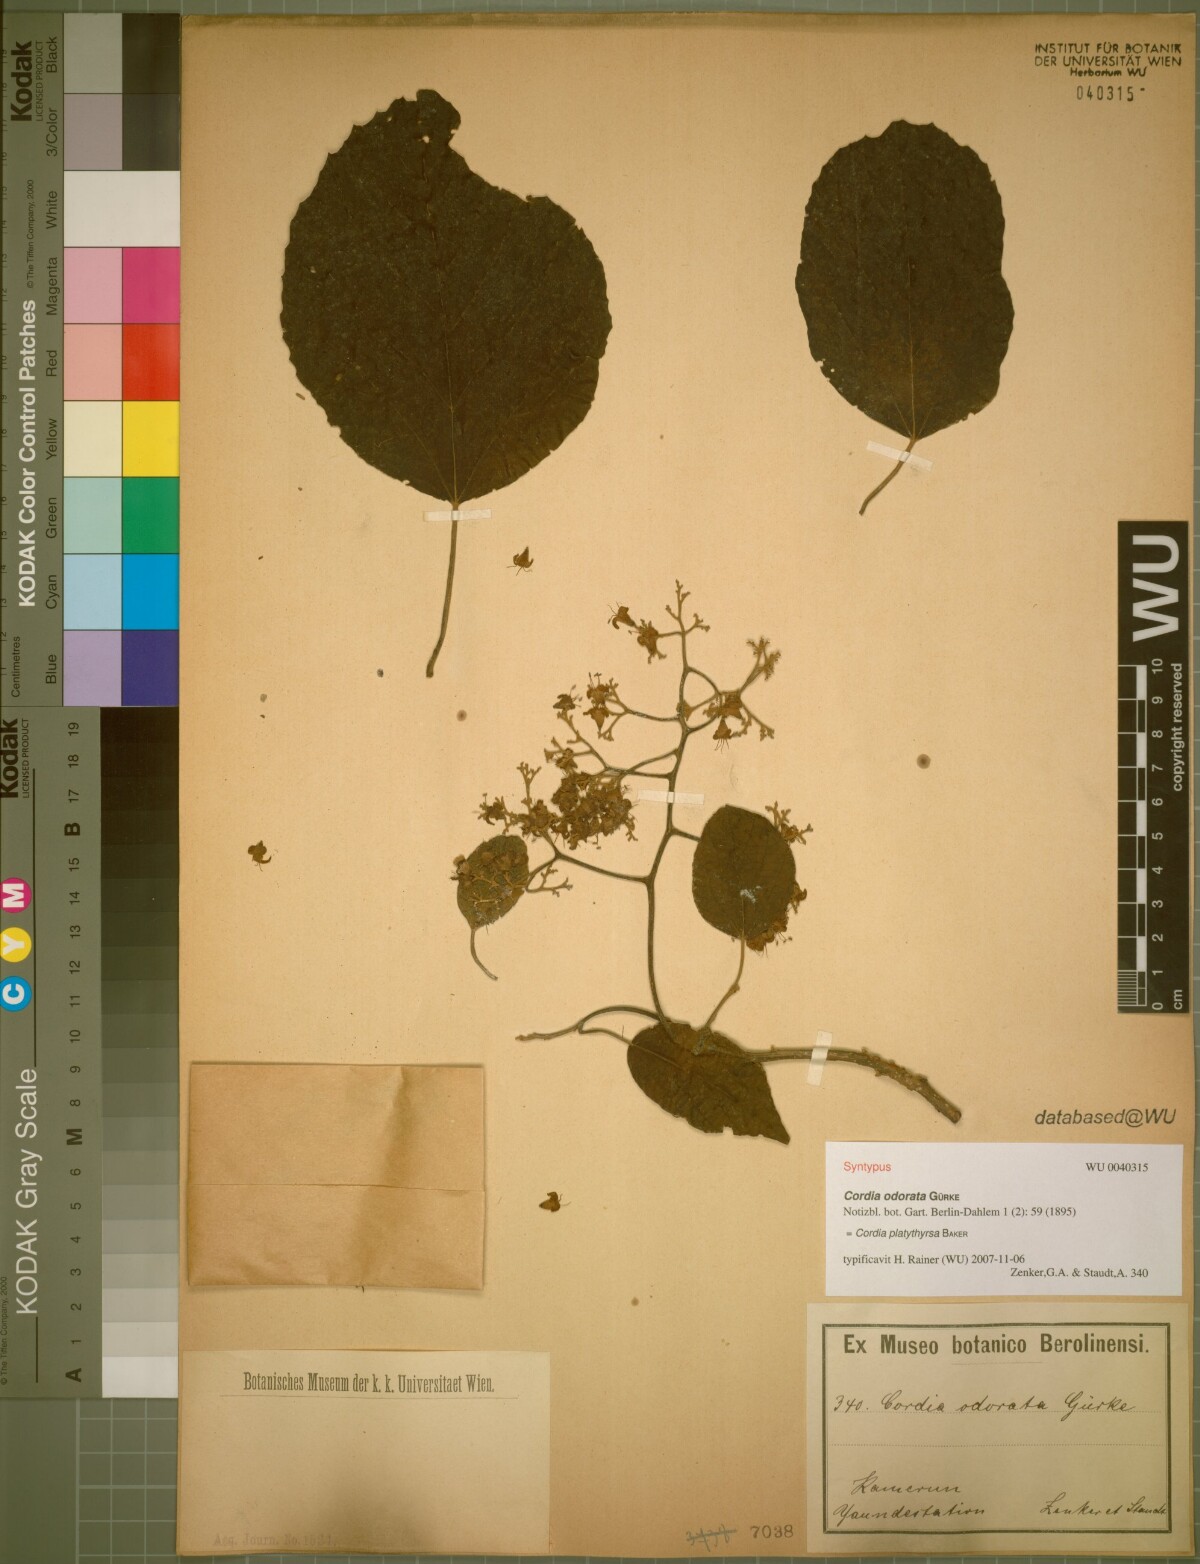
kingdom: Plantae
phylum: Tracheophyta
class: Magnoliopsida
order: Boraginales
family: Cordiaceae
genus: Cordia
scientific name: Cordia platythyrsa
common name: West african cordia
